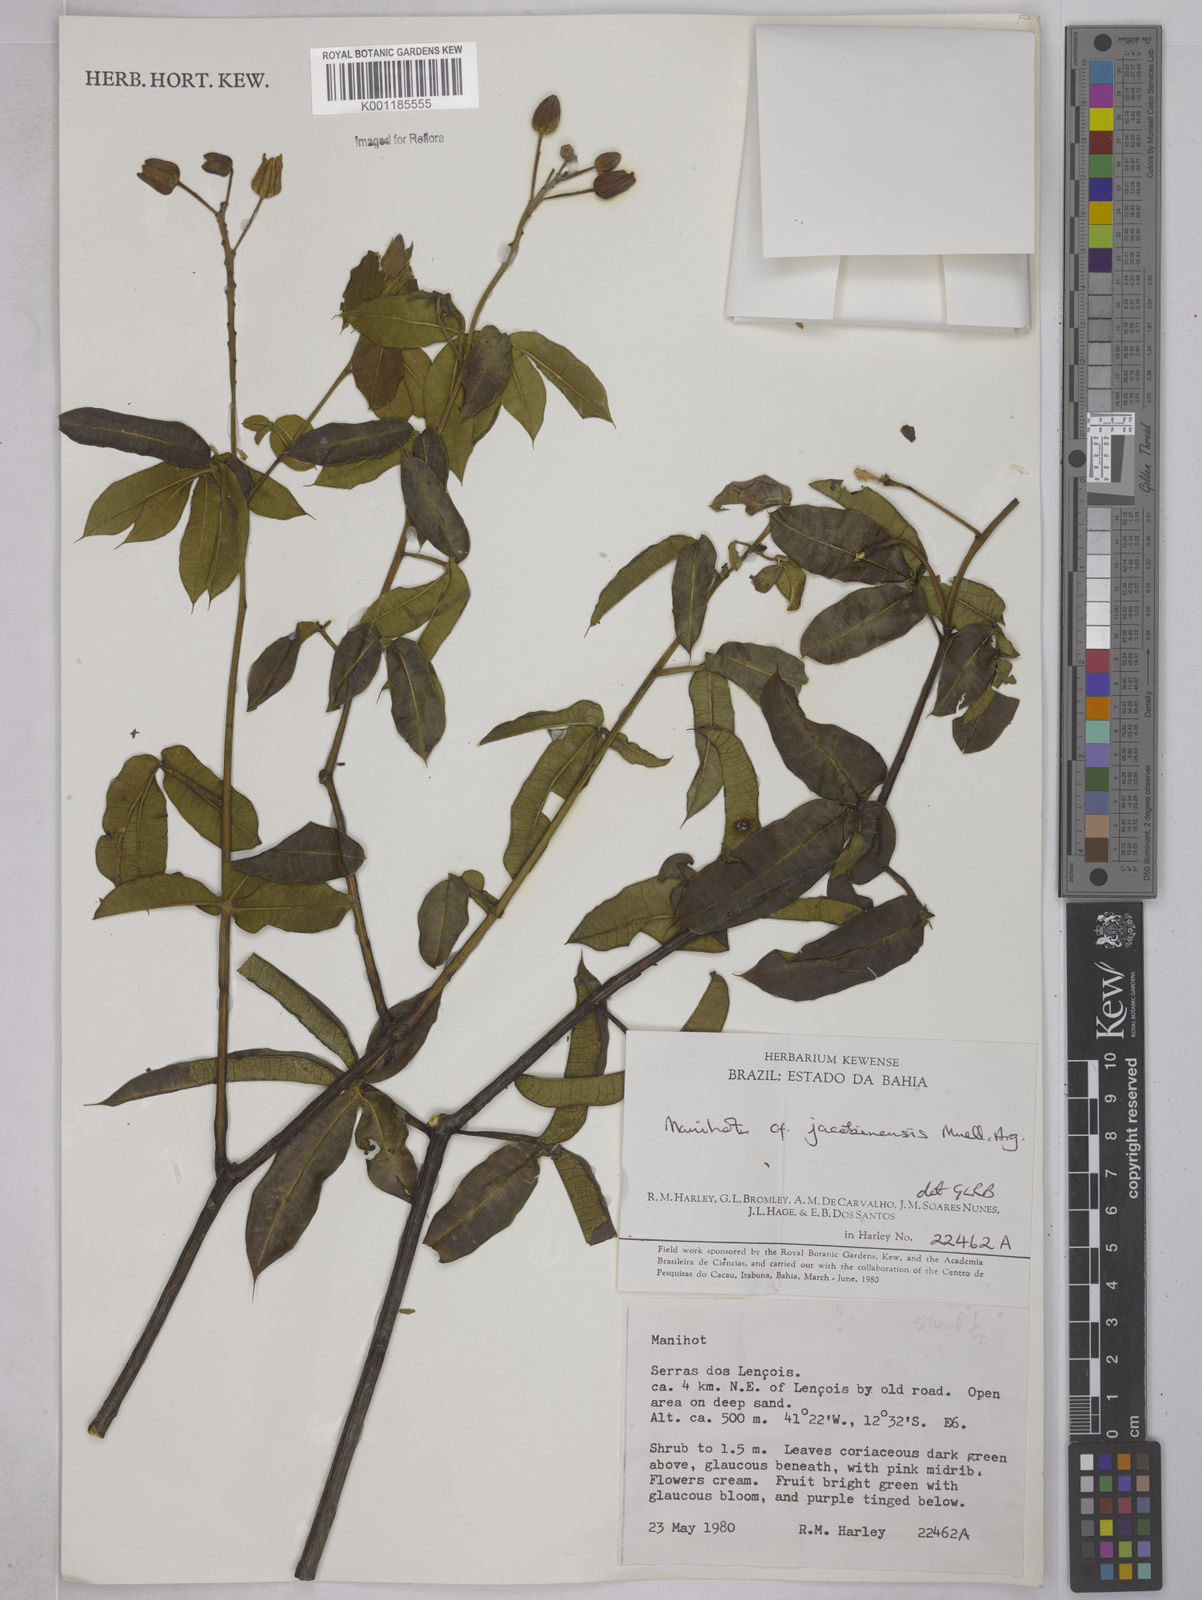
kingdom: Plantae
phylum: Tracheophyta
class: Magnoliopsida
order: Malpighiales
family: Euphorbiaceae
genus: Manihot
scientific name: Manihot
